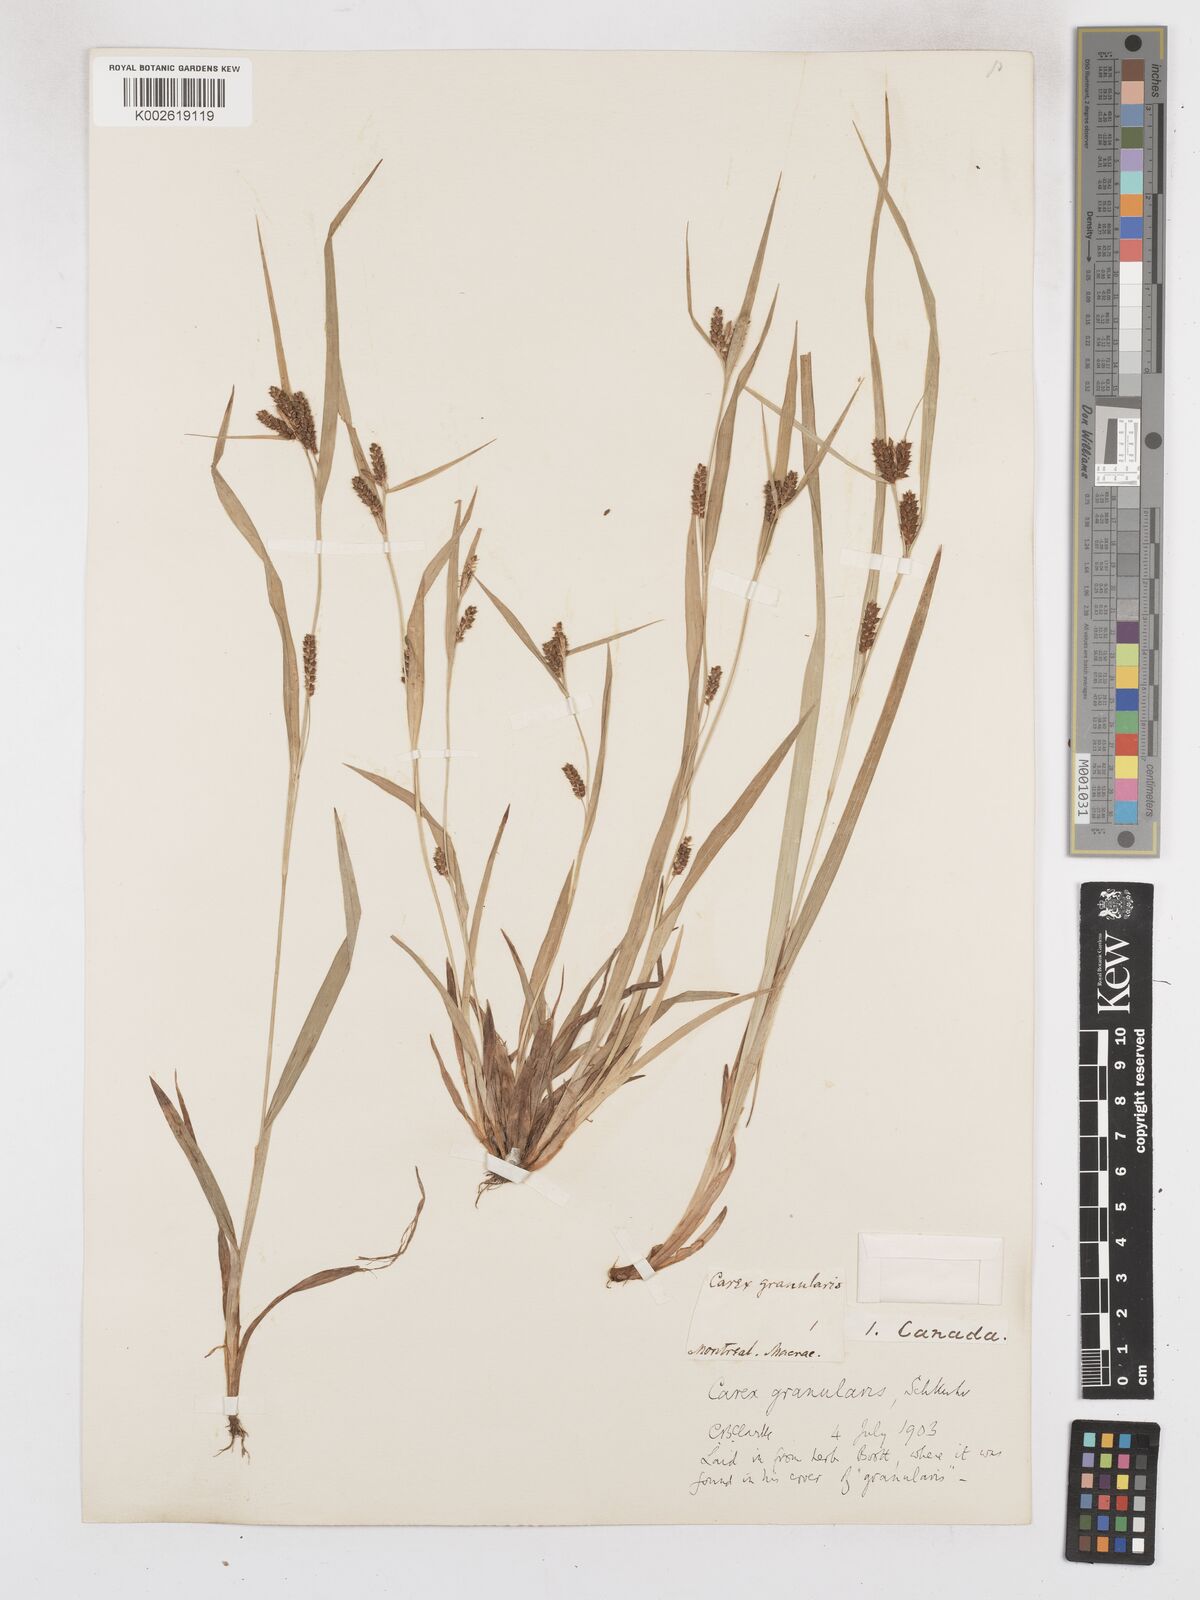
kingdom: Plantae
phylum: Tracheophyta
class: Liliopsida
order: Poales
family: Cyperaceae
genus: Carex
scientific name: Carex granularis
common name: Granular sedge
